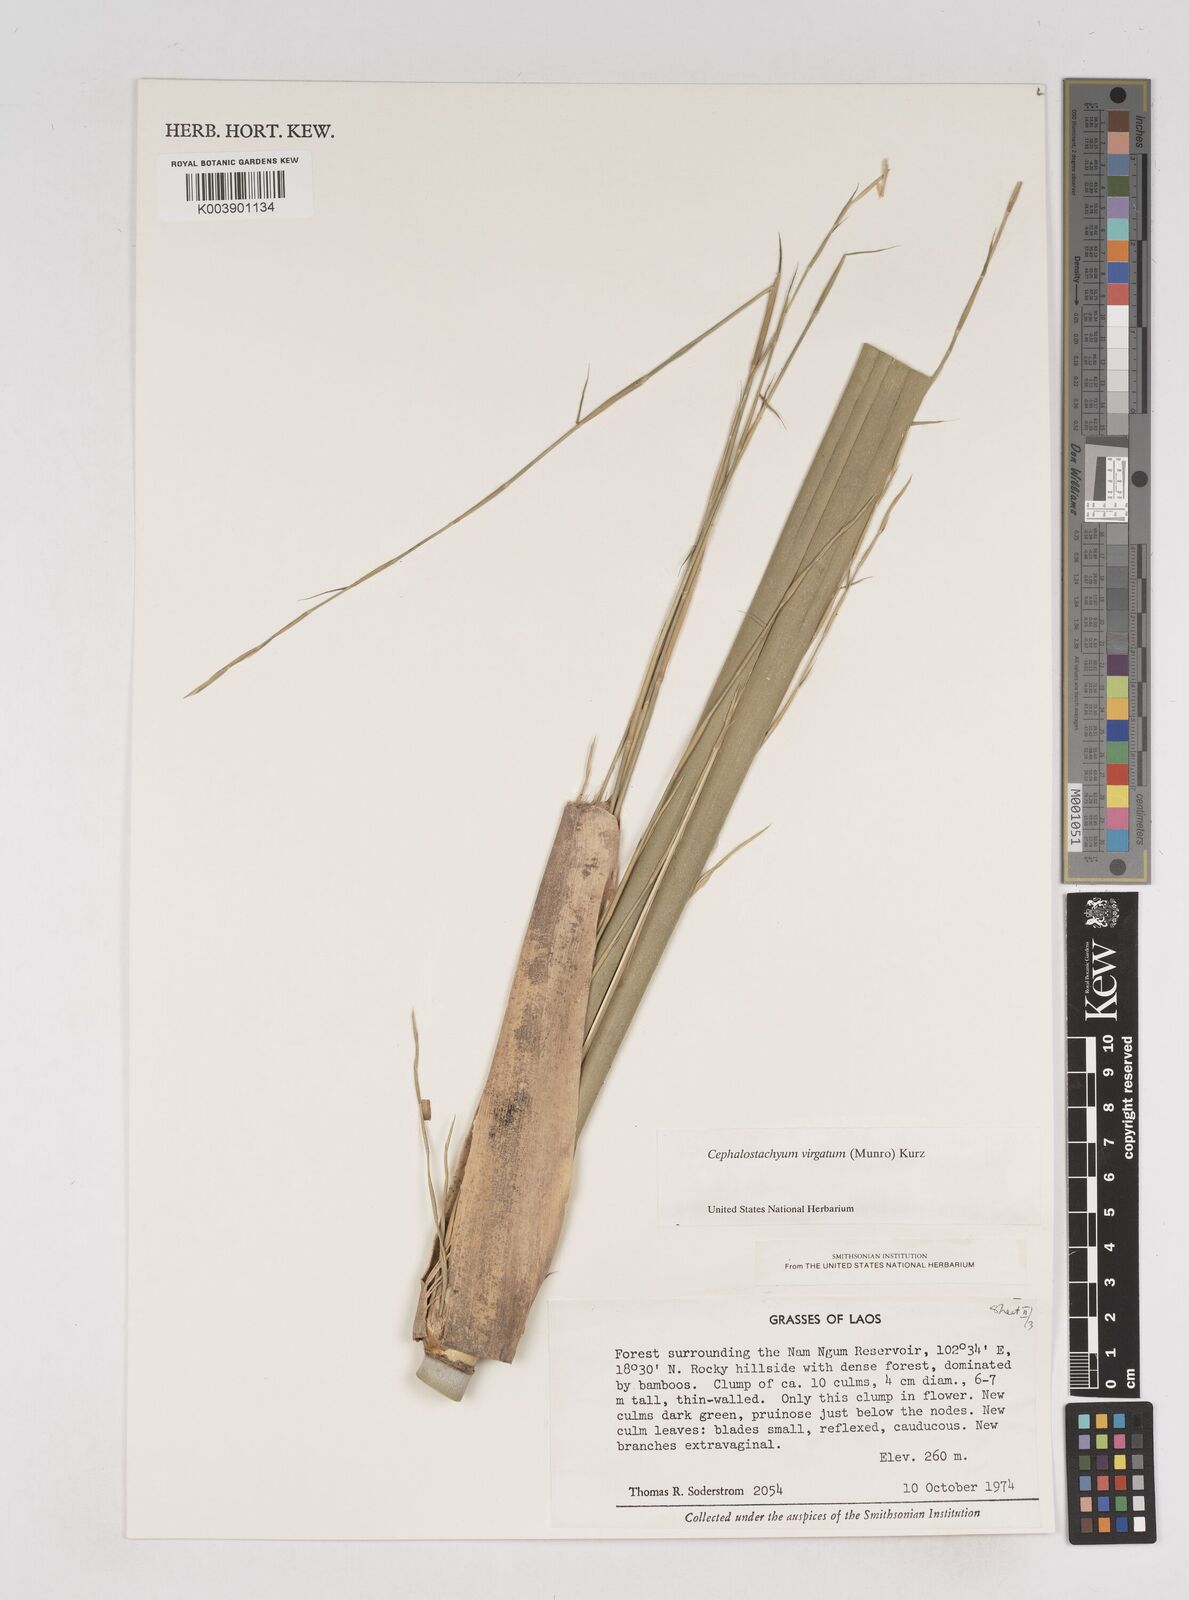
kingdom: Plantae
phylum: Tracheophyta
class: Liliopsida
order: Poales
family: Poaceae
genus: Schizostachyum
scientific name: Schizostachyum virgatum
